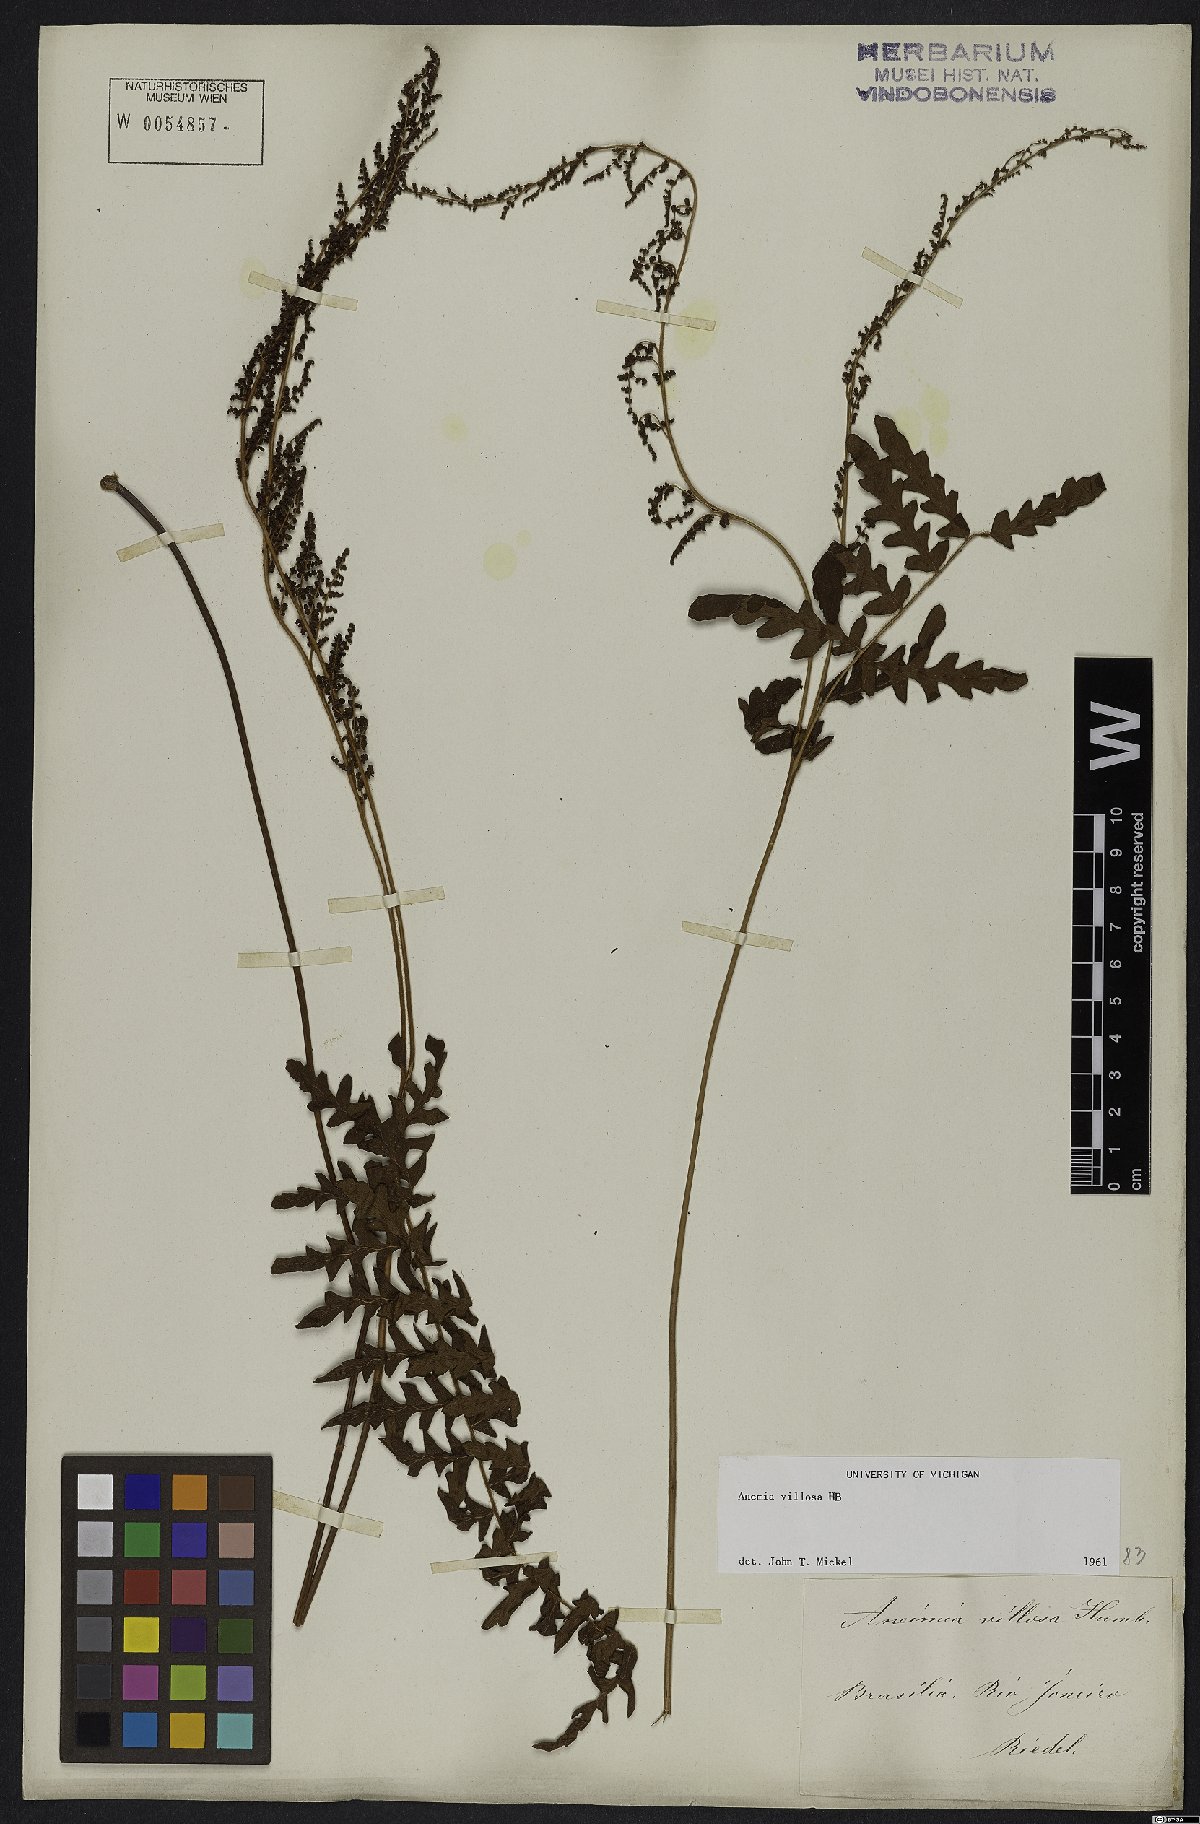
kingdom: Plantae
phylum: Tracheophyta
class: Polypodiopsida
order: Schizaeales
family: Anemiaceae
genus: Anemia
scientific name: Anemia villosa
